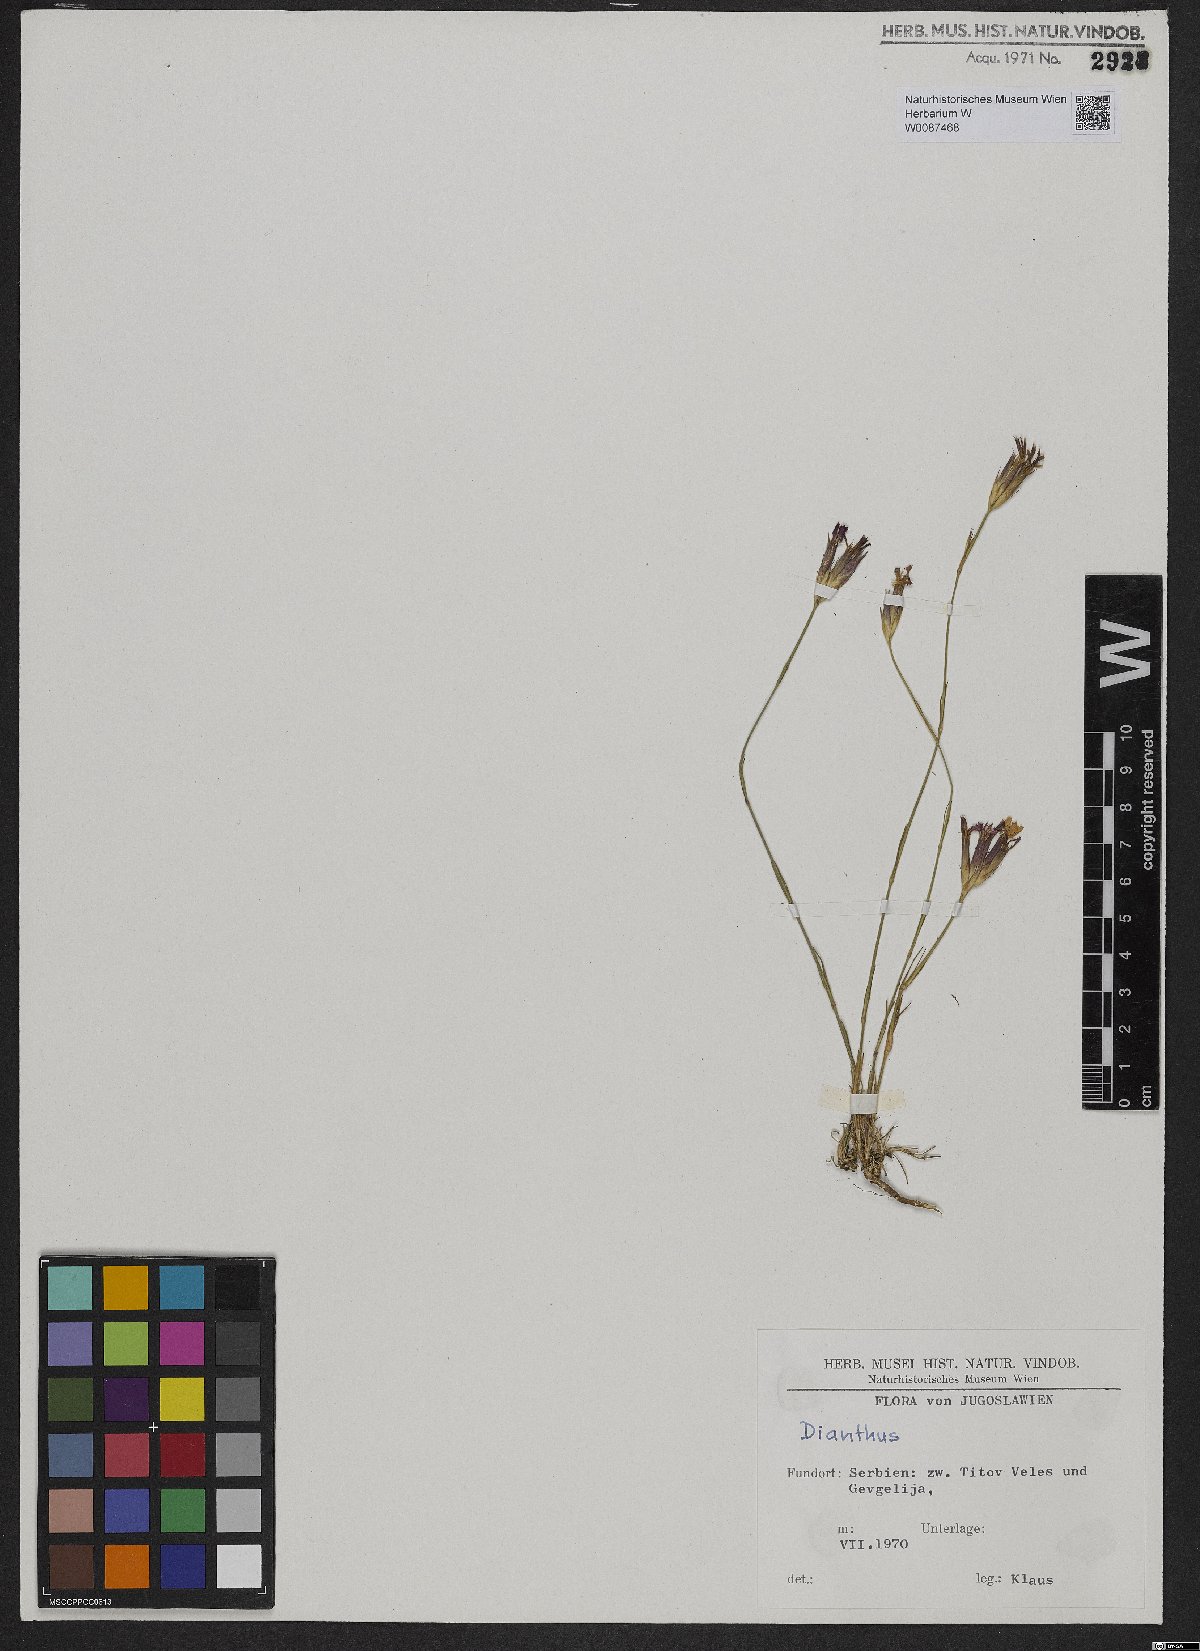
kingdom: Plantae
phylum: Tracheophyta
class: Magnoliopsida
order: Caryophyllales
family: Caryophyllaceae
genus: Dianthus
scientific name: Dianthus
